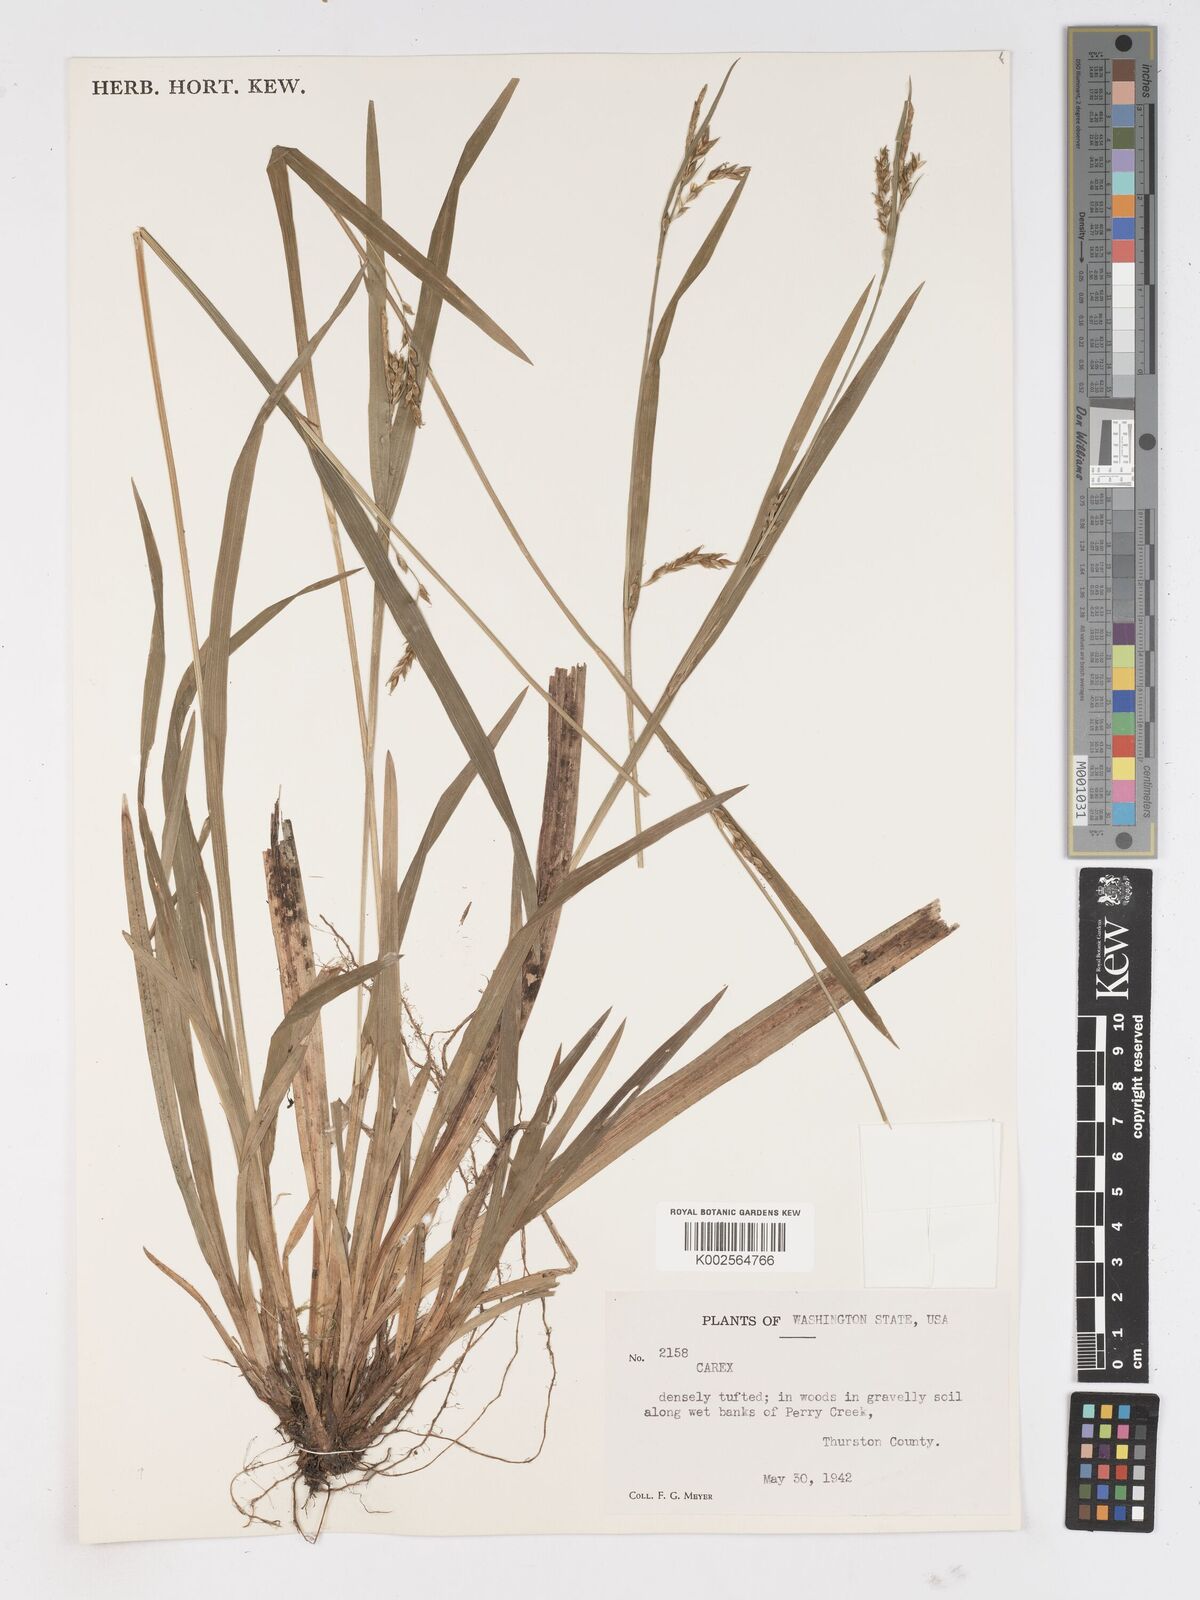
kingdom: Plantae
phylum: Tracheophyta
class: Liliopsida
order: Poales
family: Cyperaceae
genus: Carex
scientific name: Carex
